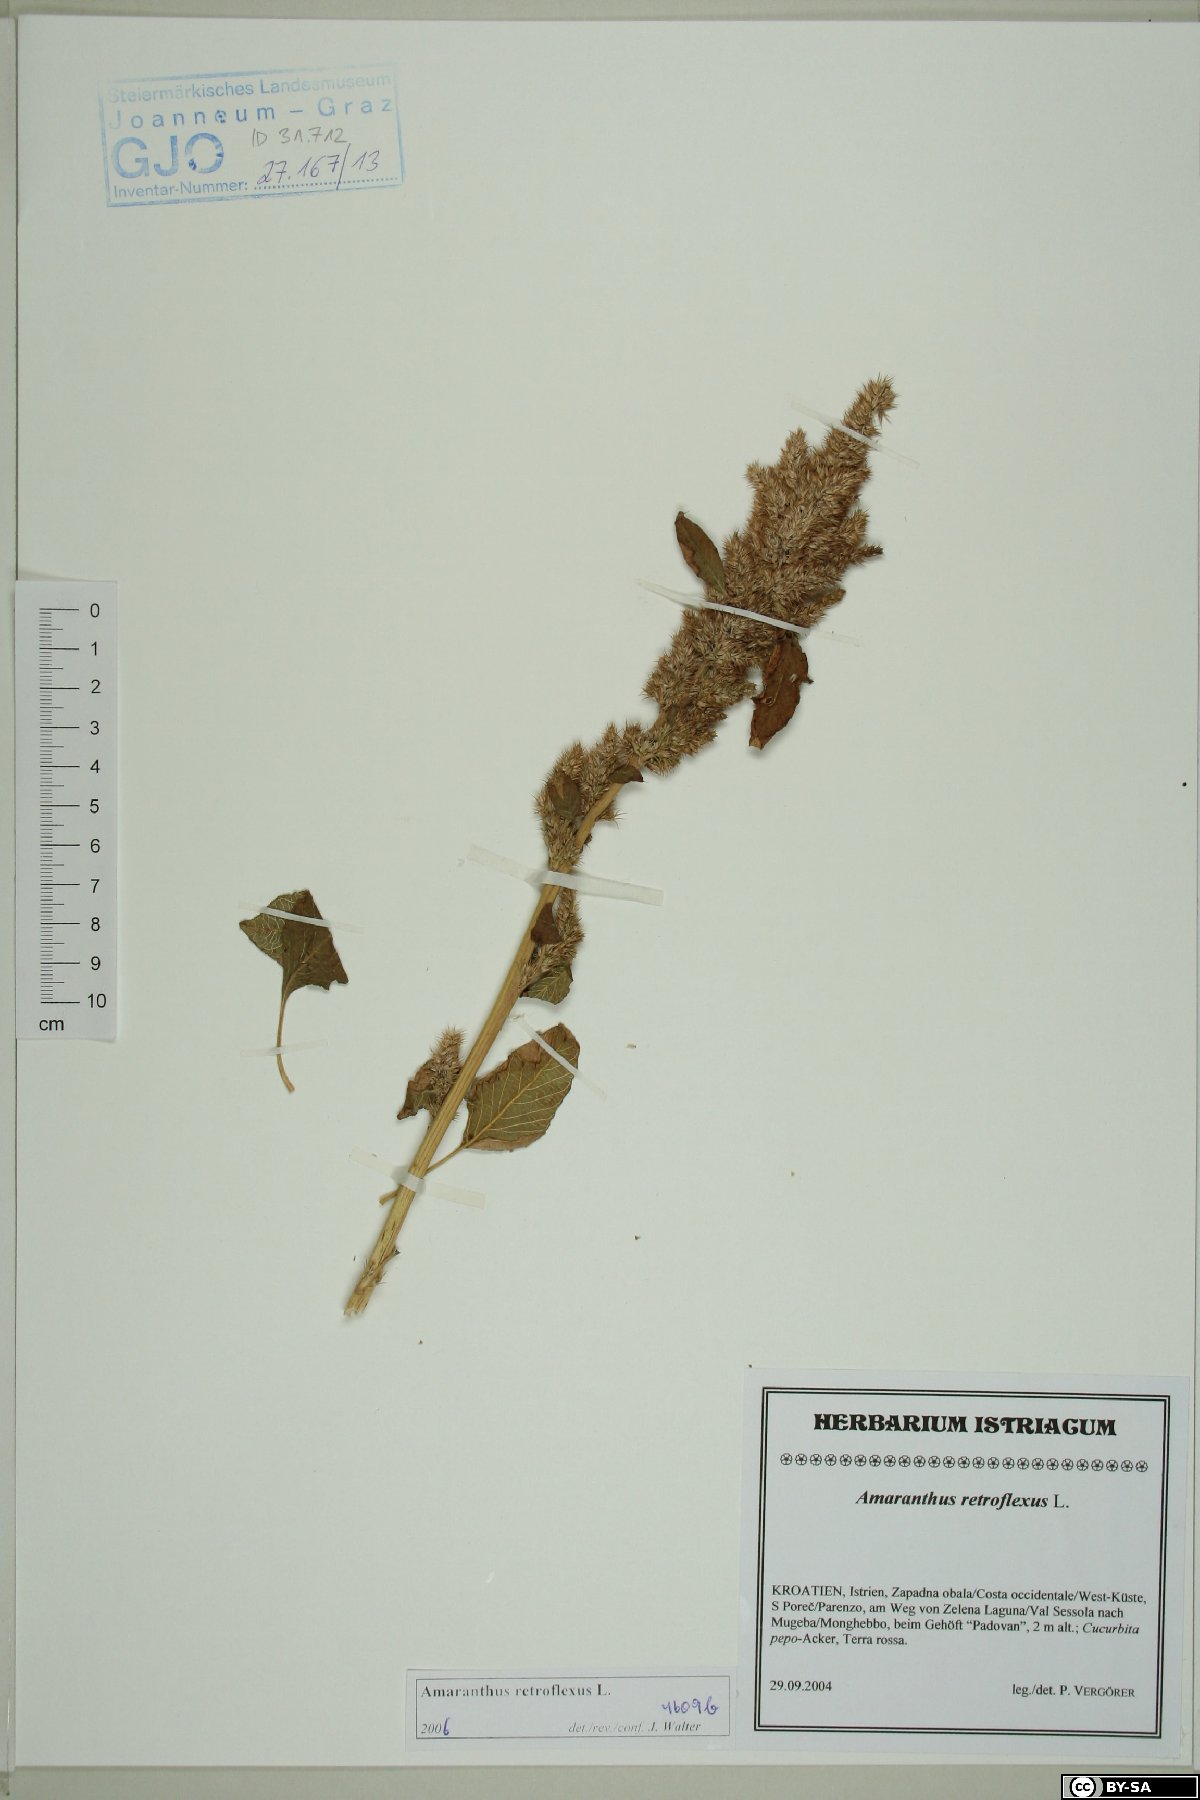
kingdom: Plantae
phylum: Tracheophyta
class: Magnoliopsida
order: Caryophyllales
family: Amaranthaceae
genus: Amaranthus
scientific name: Amaranthus retroflexus
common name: Redroot amaranth
